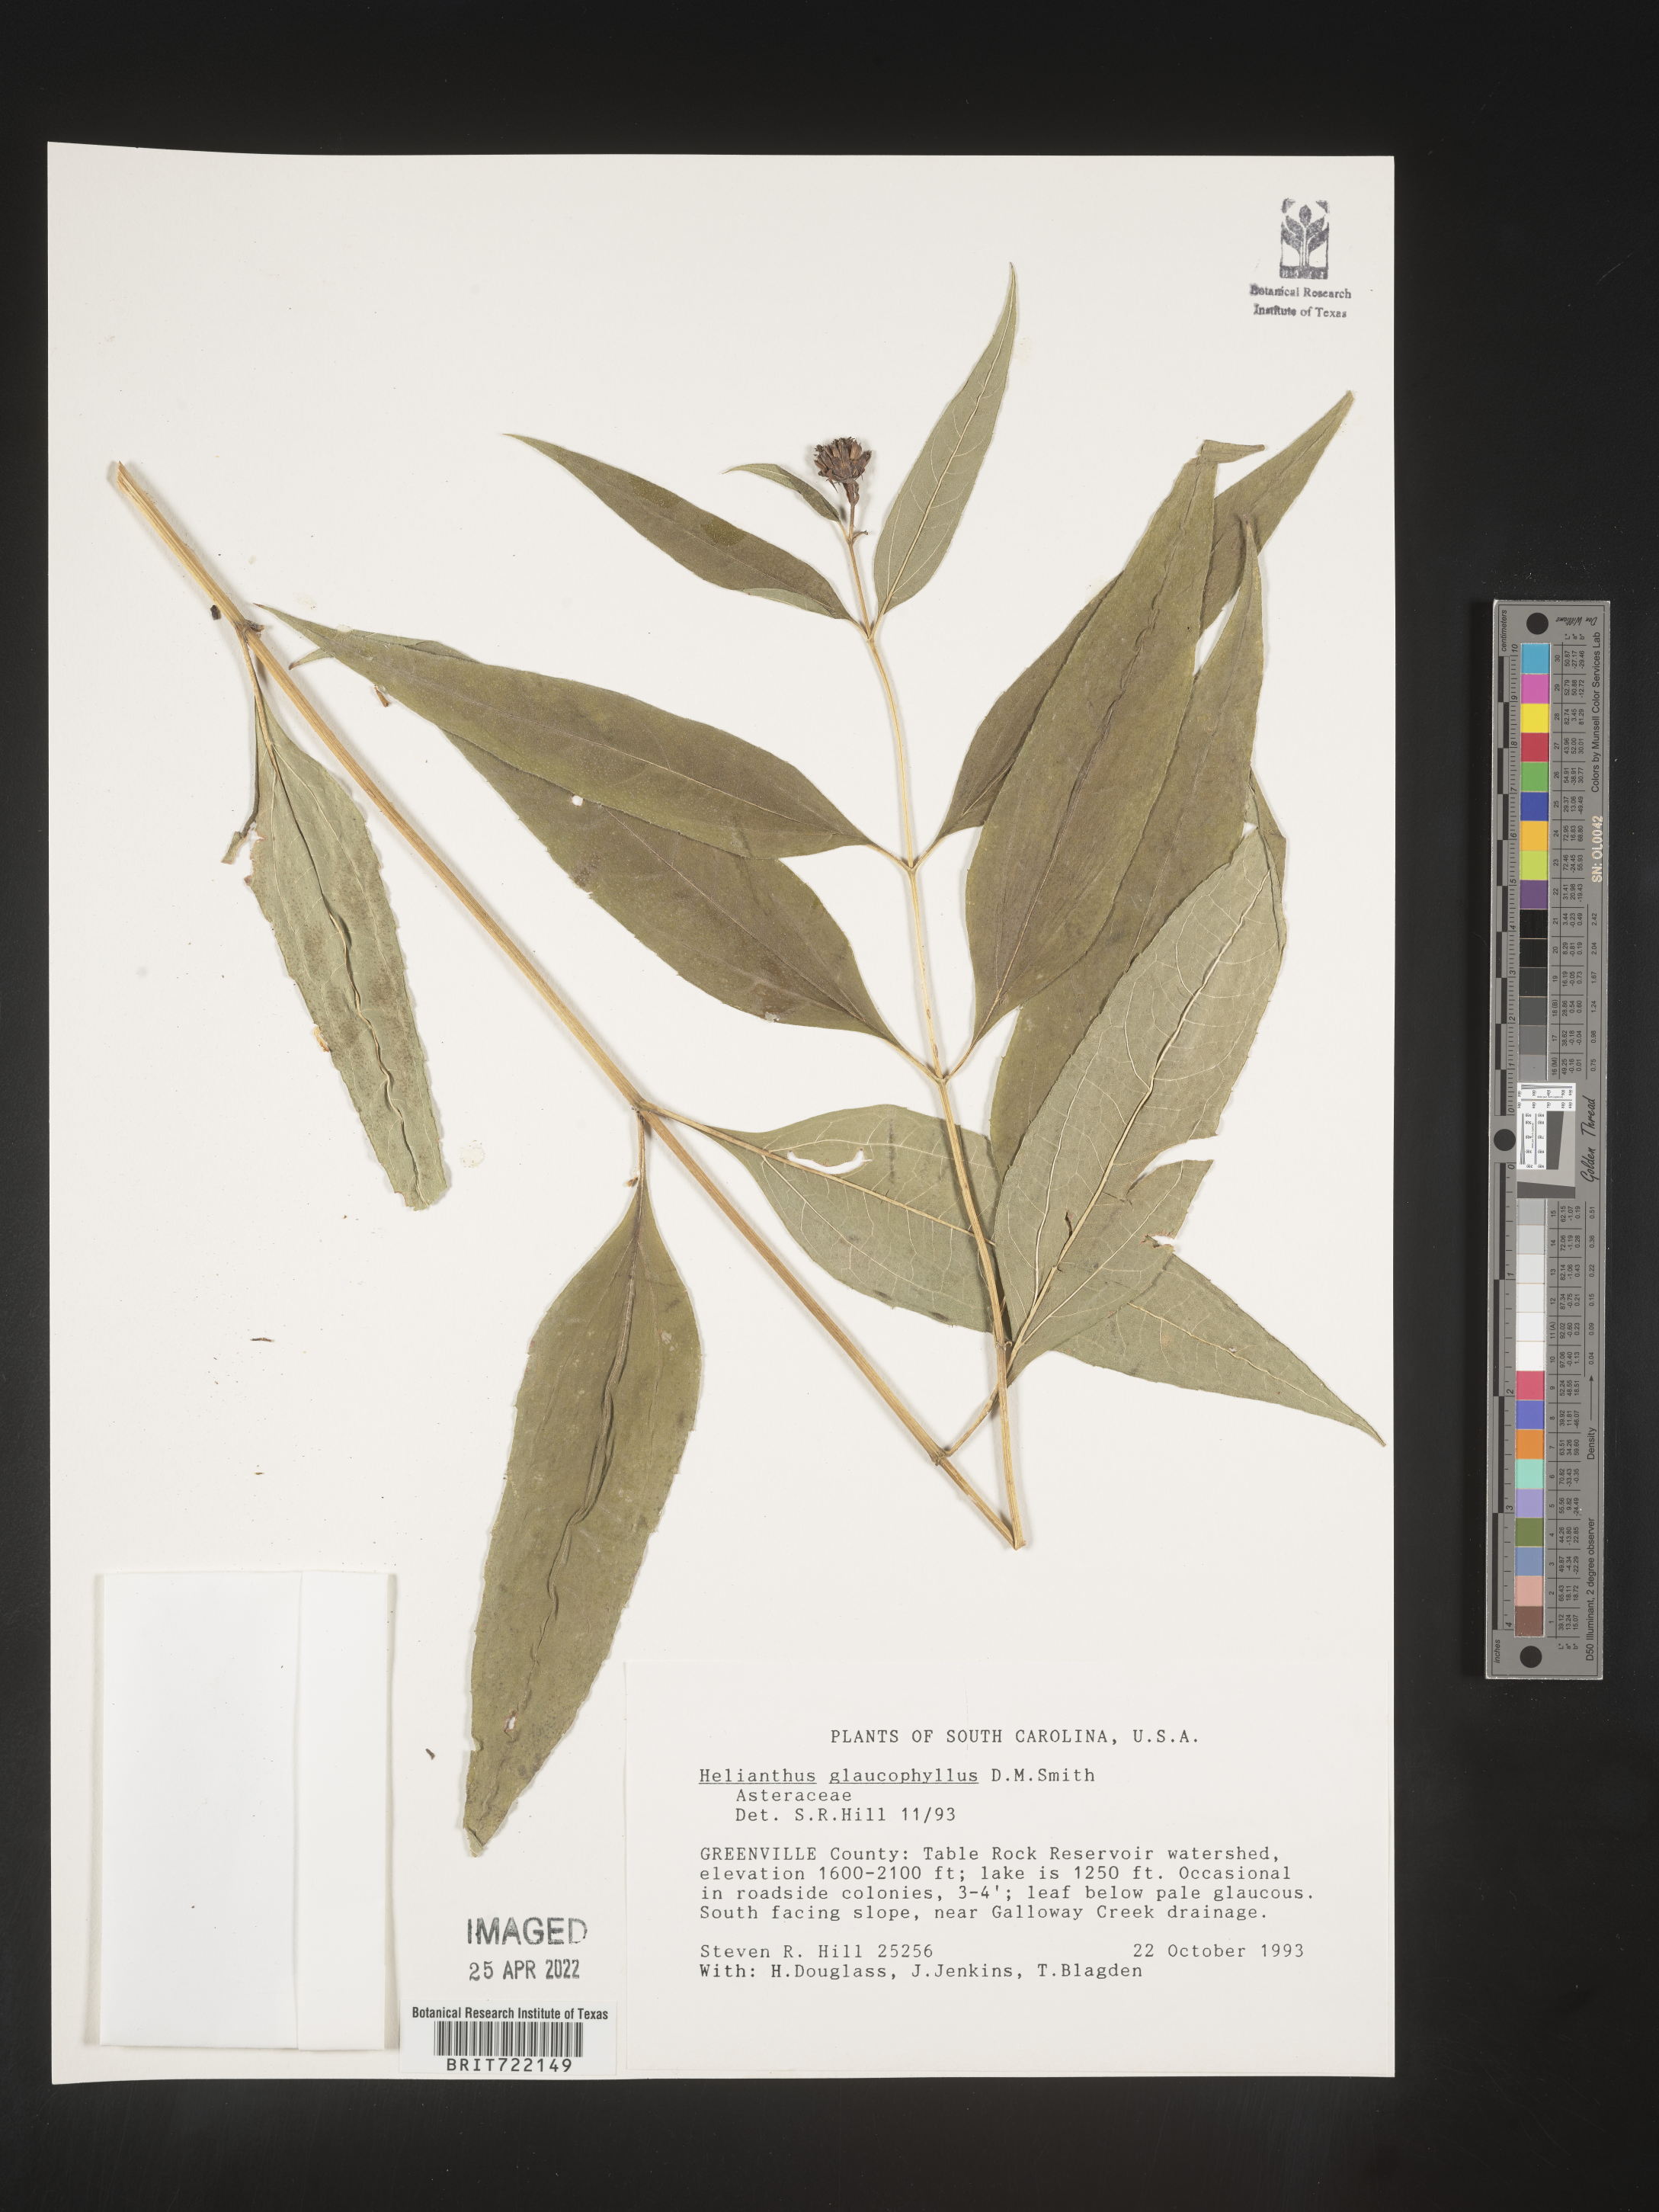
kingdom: Plantae
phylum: Tracheophyta
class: Magnoliopsida
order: Asterales
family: Asteraceae
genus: Helianthus
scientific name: Helianthus giganteus
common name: Giant sunflower
